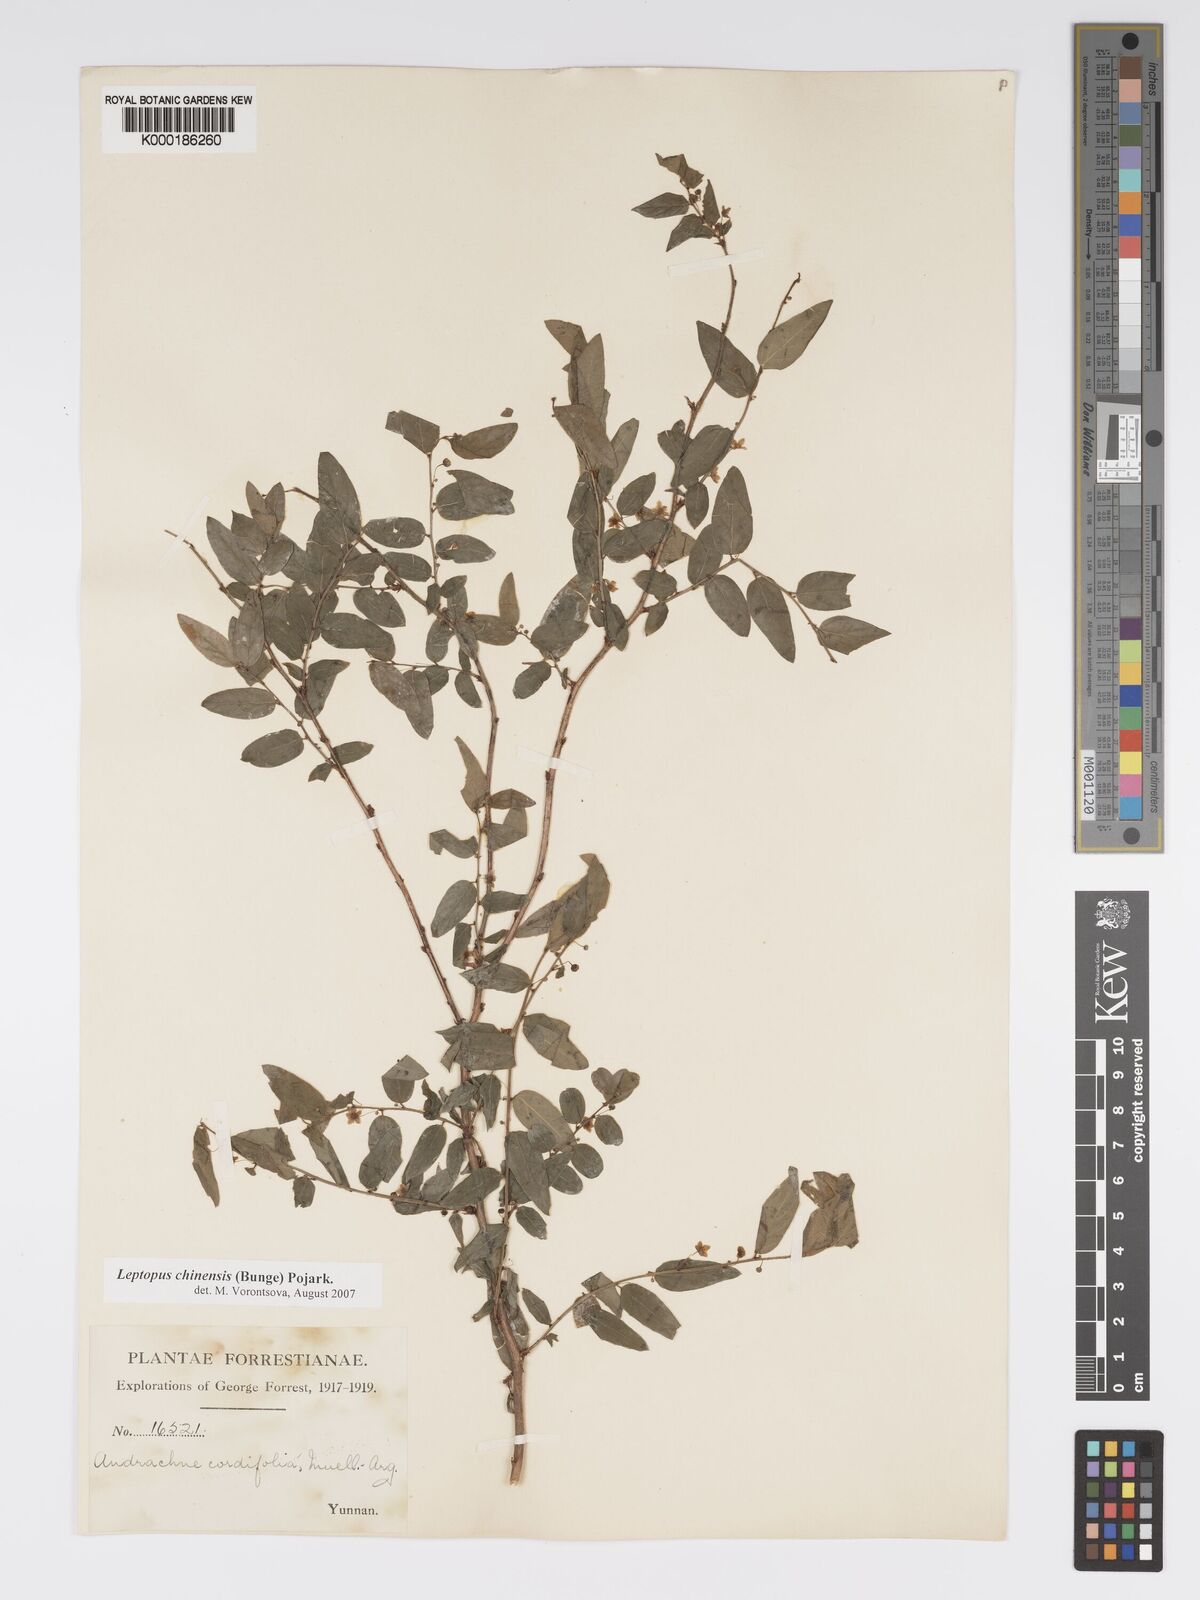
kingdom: Plantae
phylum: Tracheophyta
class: Magnoliopsida
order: Malpighiales
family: Phyllanthaceae
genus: Leptopus
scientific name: Leptopus cordifolius
